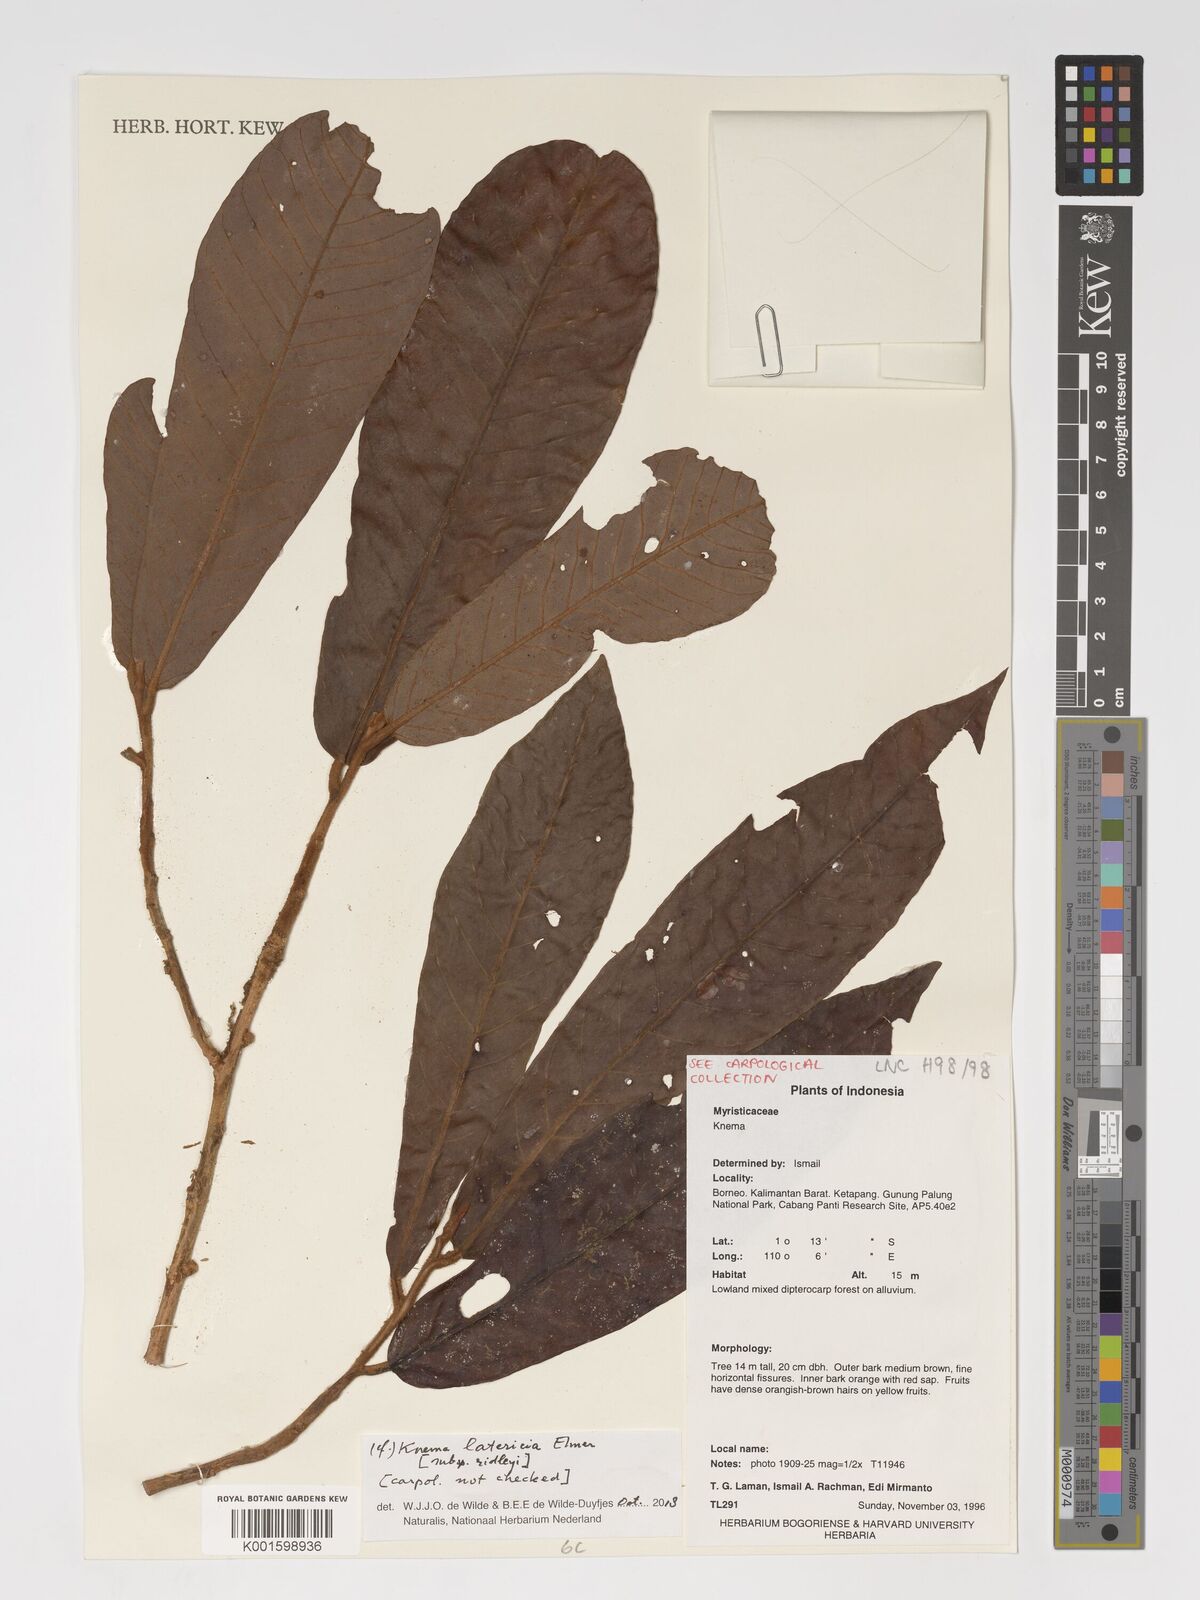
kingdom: Plantae
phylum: Tracheophyta
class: Magnoliopsida
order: Magnoliales
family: Myristicaceae
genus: Knema
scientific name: Knema latericia
